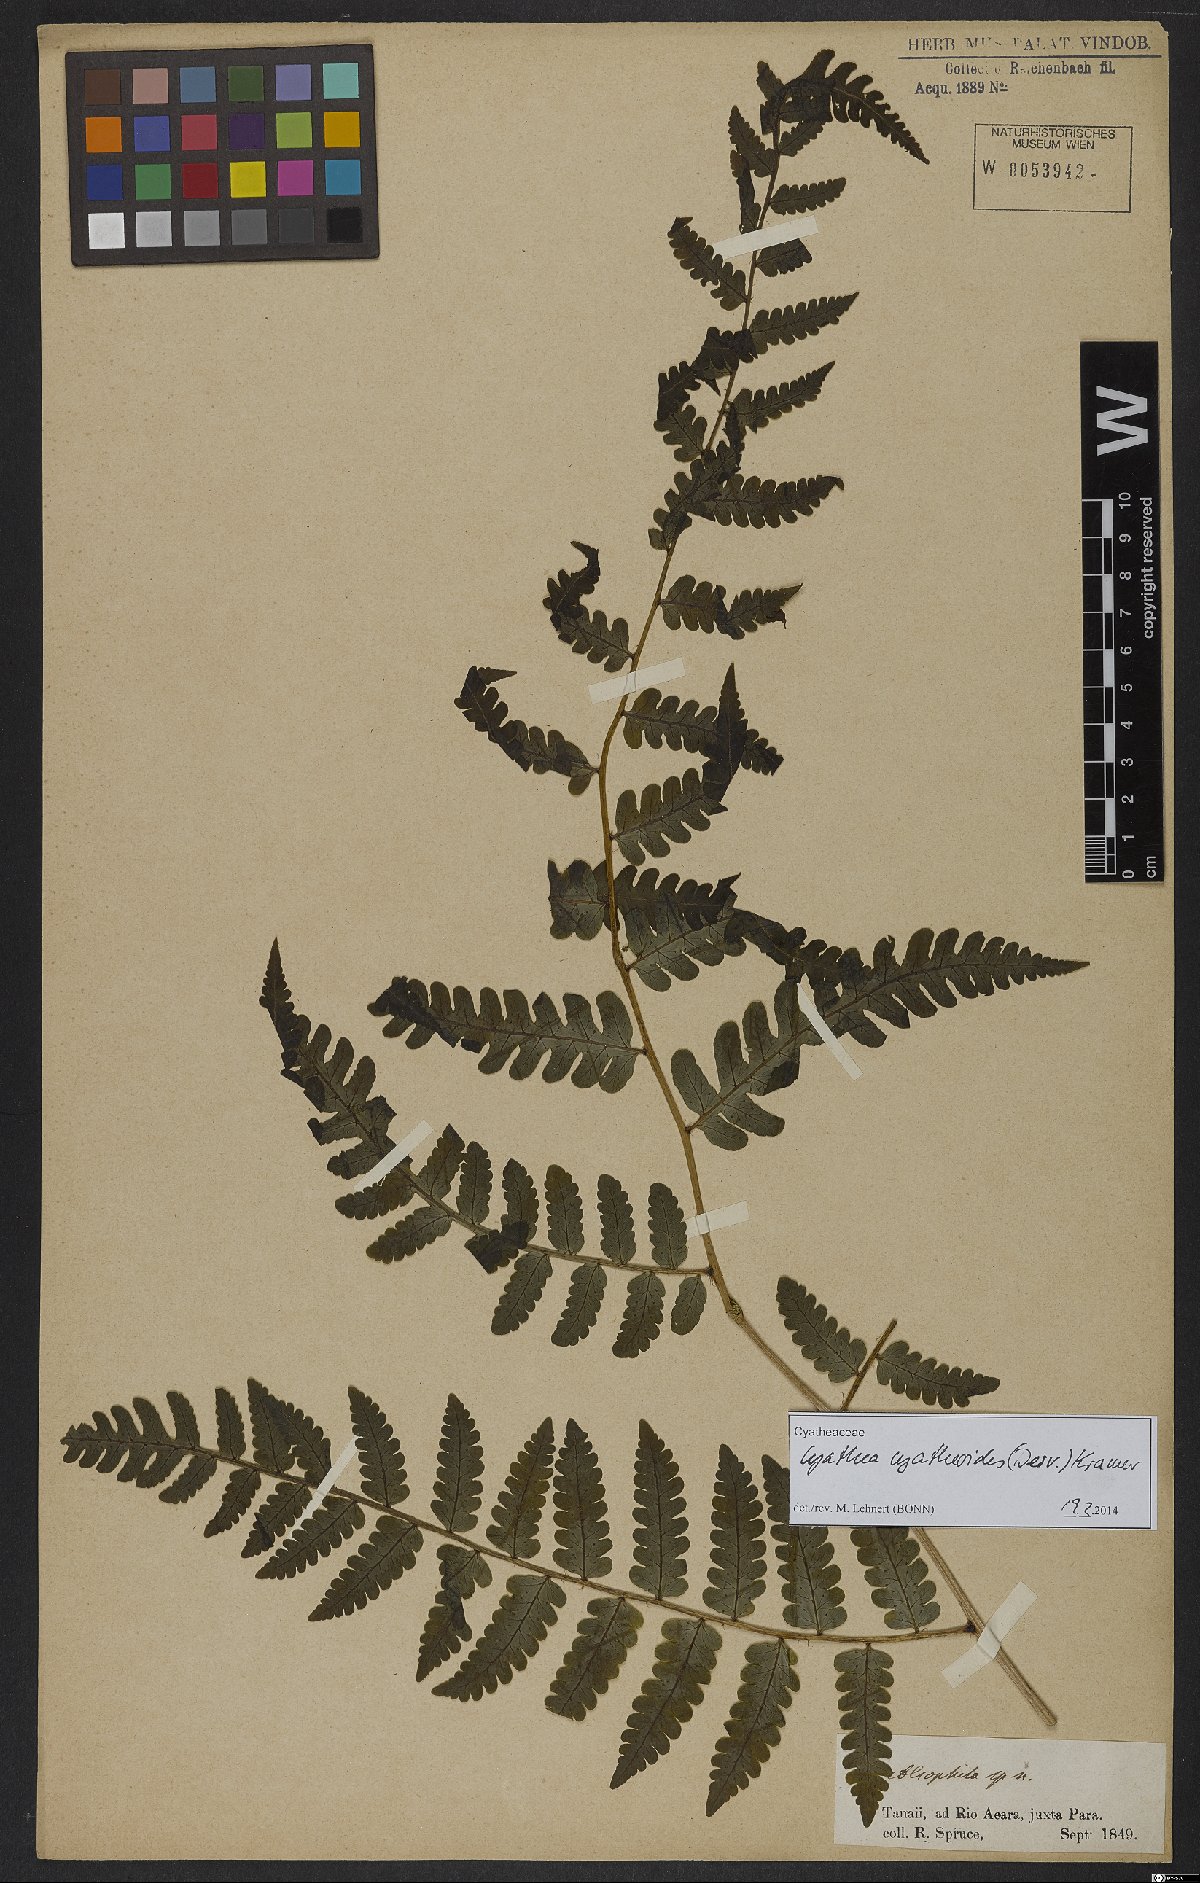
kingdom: Plantae
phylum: Tracheophyta
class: Polypodiopsida
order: Cyatheales
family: Cyatheaceae
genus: Cyathea
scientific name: Cyathea cyatheoides
